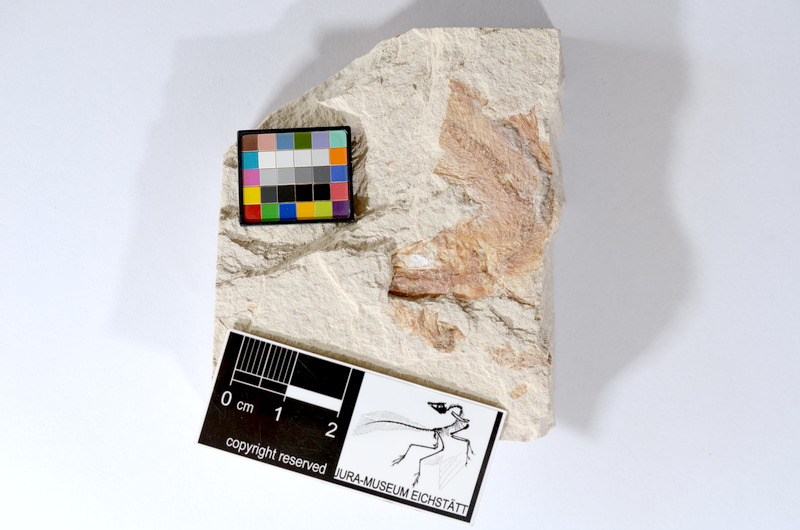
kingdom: Animalia
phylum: Chordata
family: Ascalaboidae
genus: Tharsis
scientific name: Tharsis dubius
